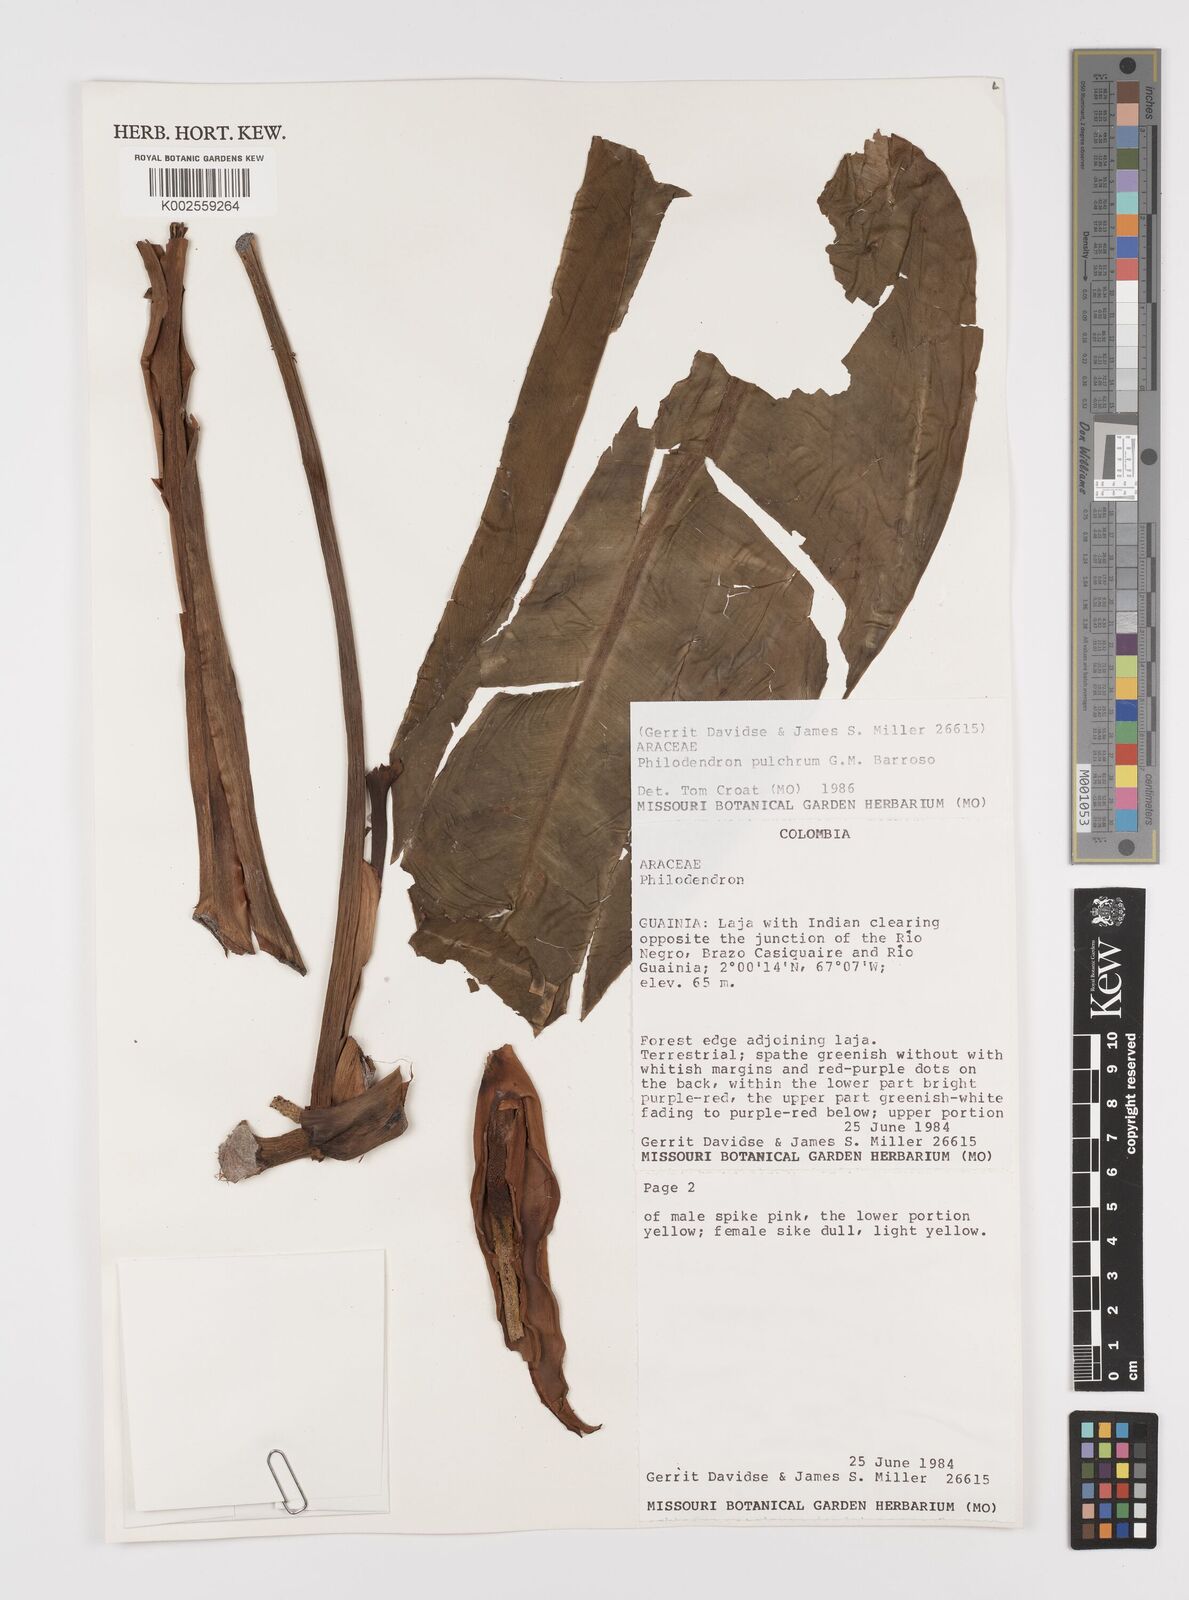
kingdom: Plantae
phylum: Tracheophyta
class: Liliopsida
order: Alismatales
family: Araceae
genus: Philodendron
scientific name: Philodendron pulchrum
